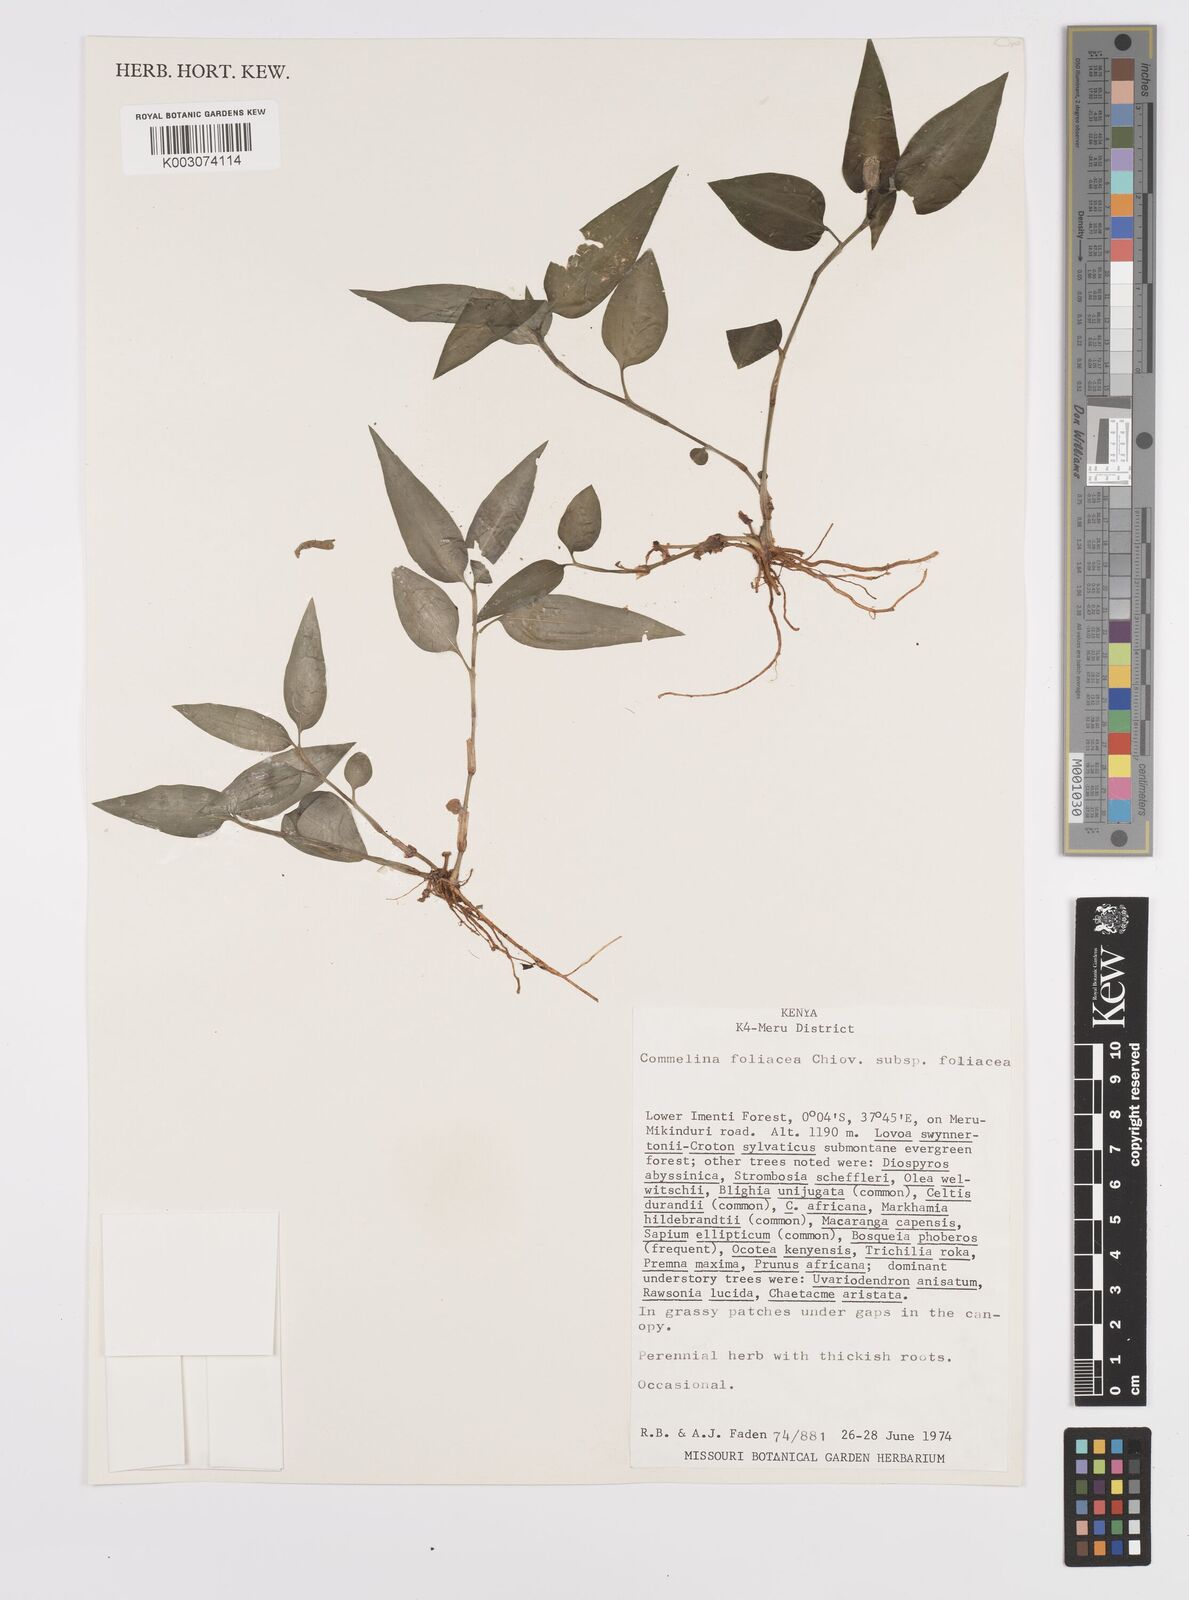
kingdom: Plantae
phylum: Tracheophyta
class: Liliopsida
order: Commelinales
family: Commelinaceae
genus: Commelina
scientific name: Commelina foliacea
